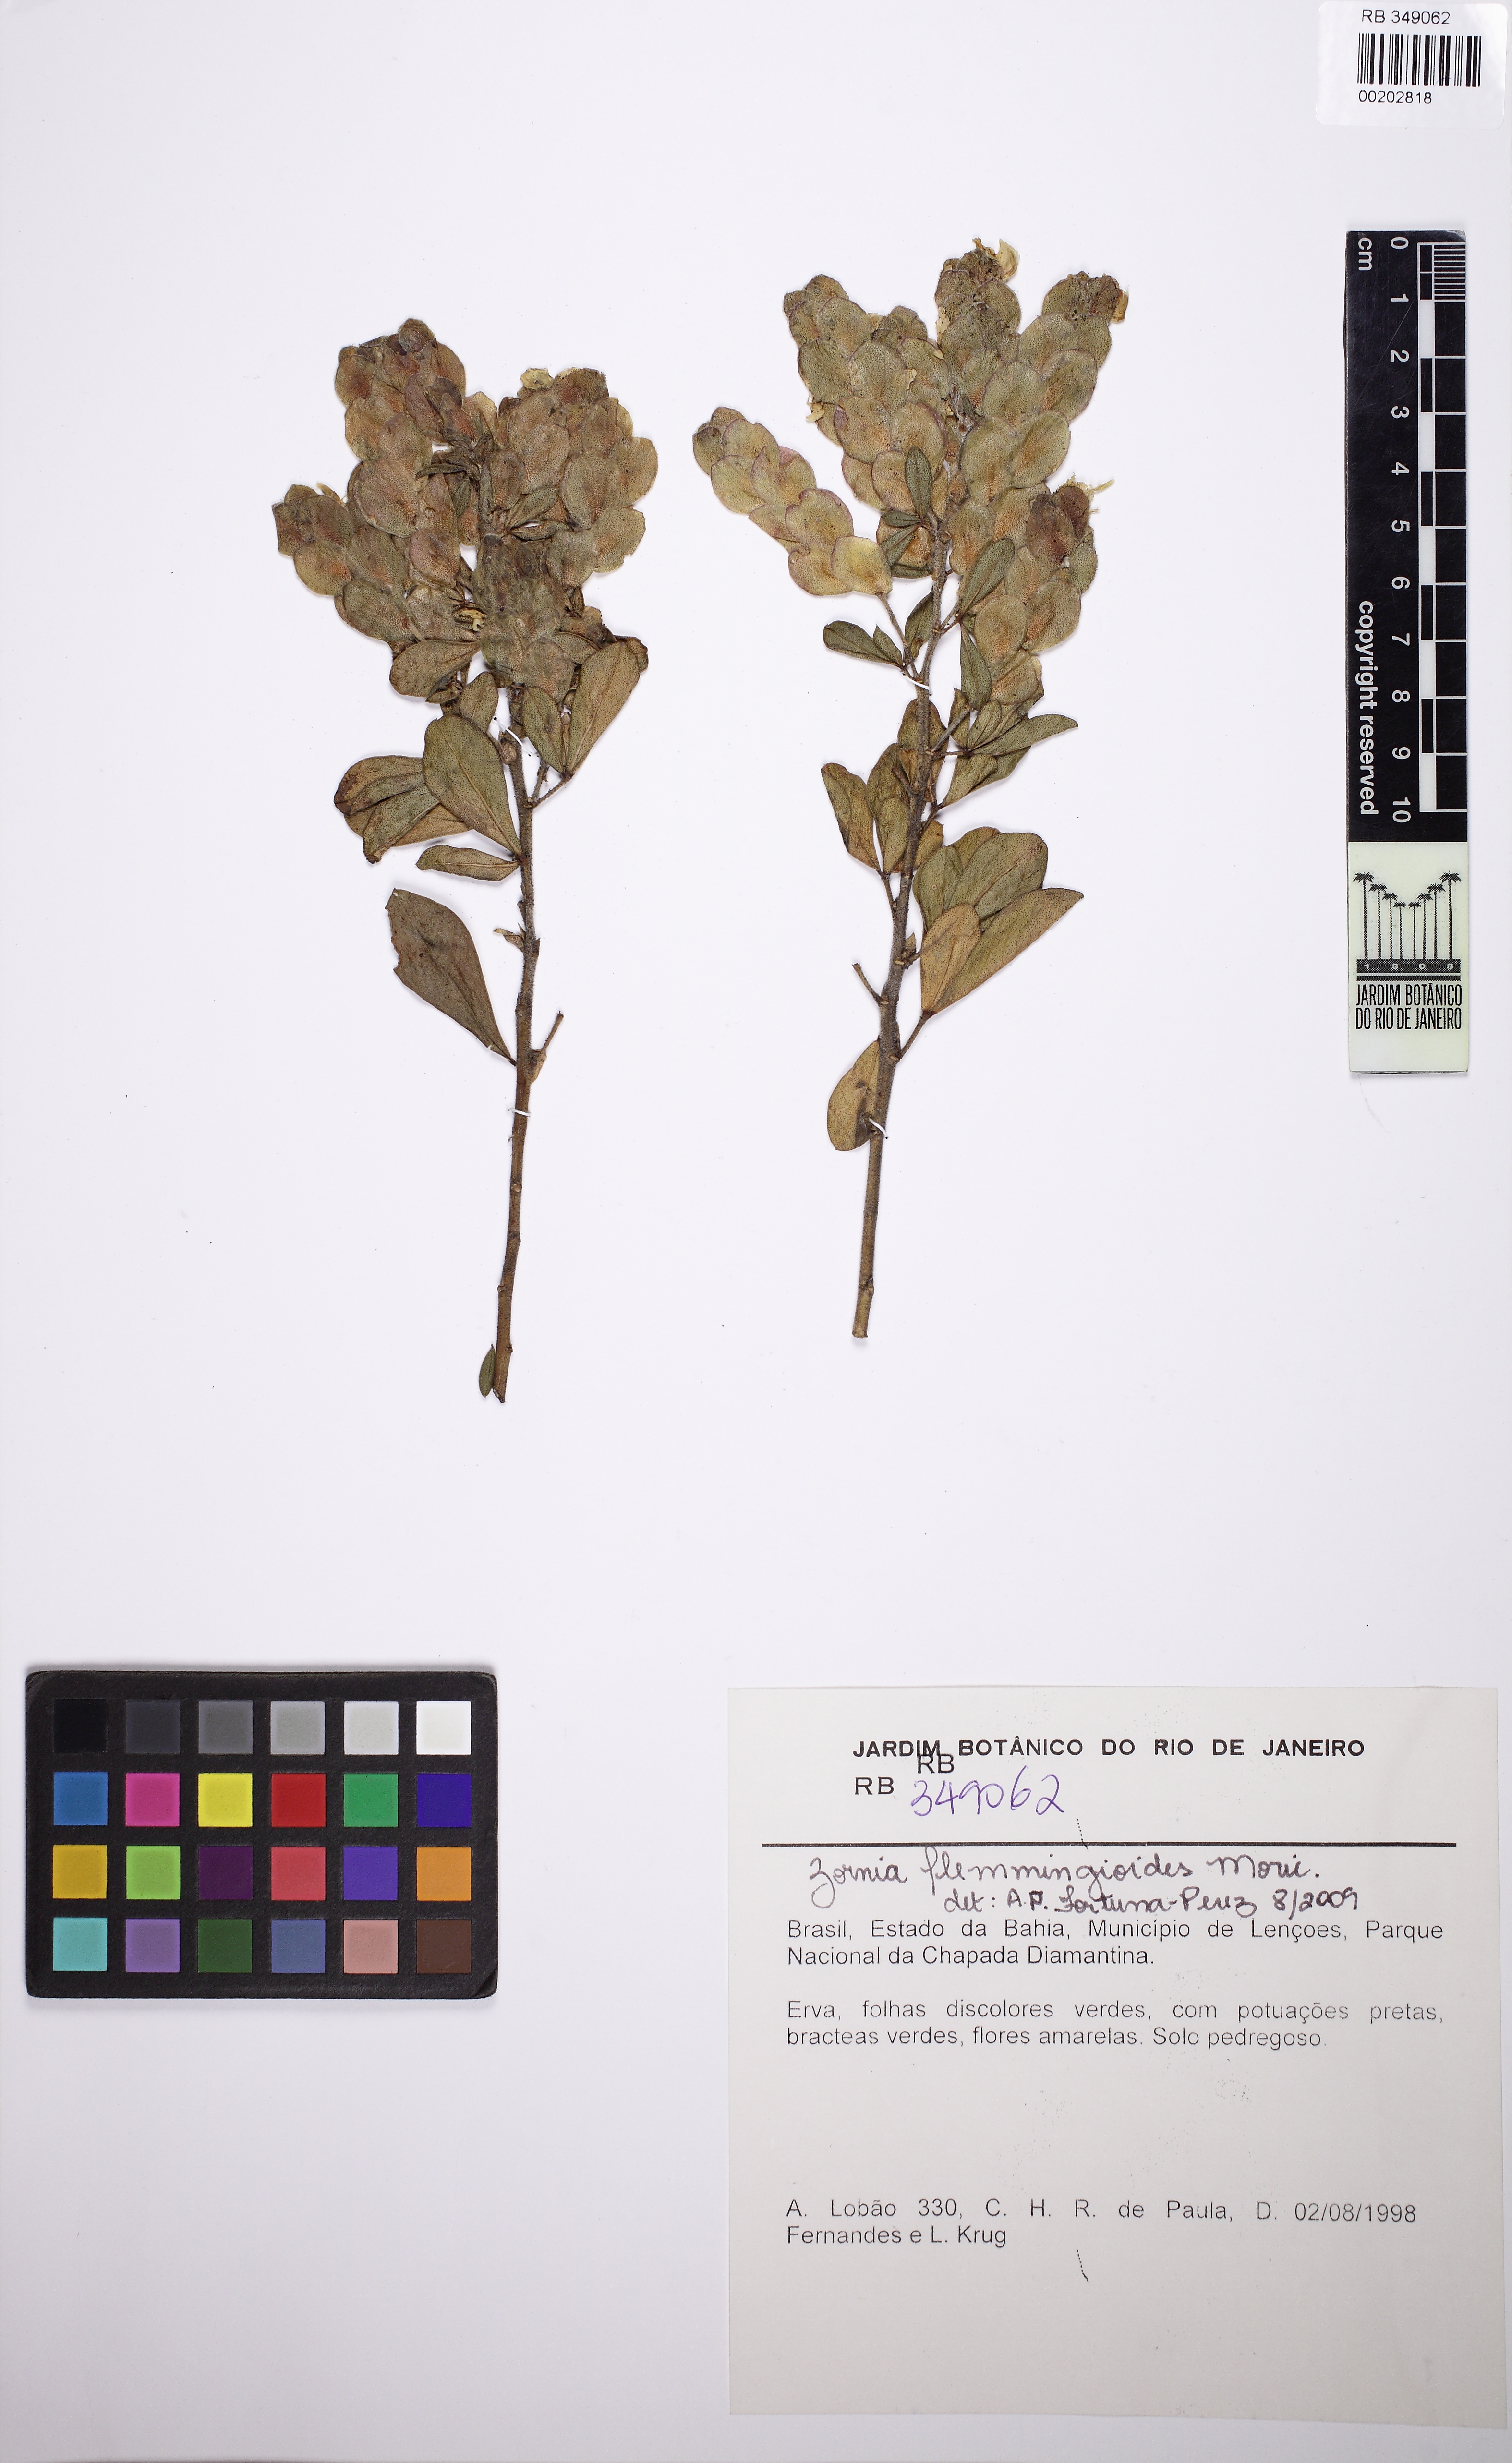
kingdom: Plantae
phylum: Tracheophyta
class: Magnoliopsida
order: Fabales
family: Fabaceae
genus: Zornia
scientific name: Zornia flemmingioides
